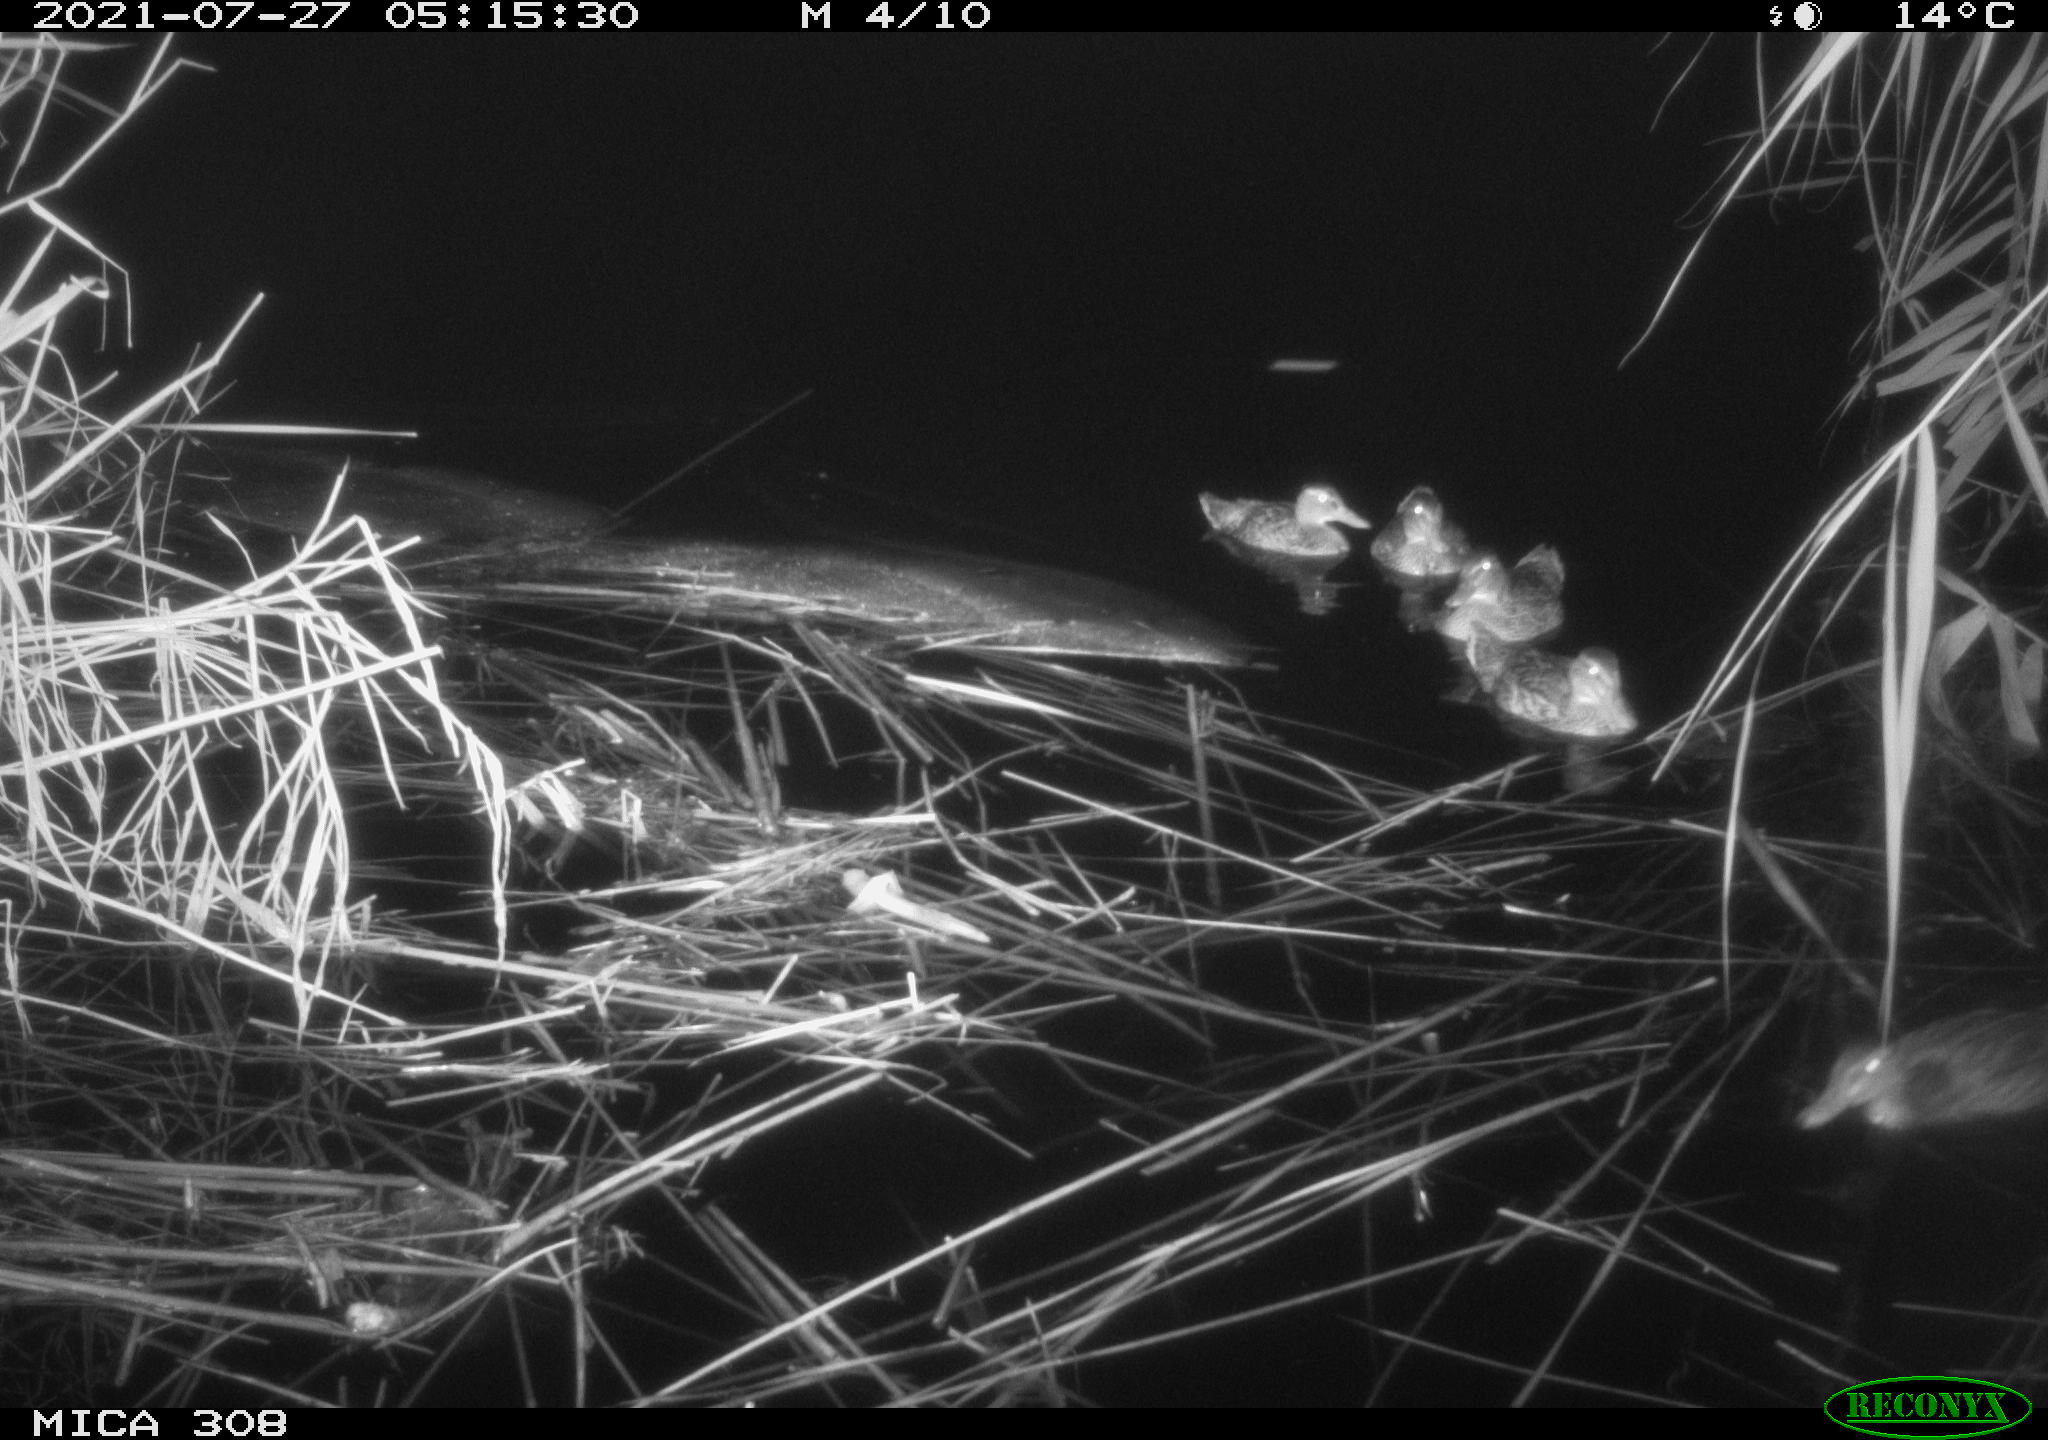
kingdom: Animalia
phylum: Chordata
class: Aves
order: Anseriformes
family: Anatidae
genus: Anas
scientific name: Anas platyrhynchos
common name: Mallard
